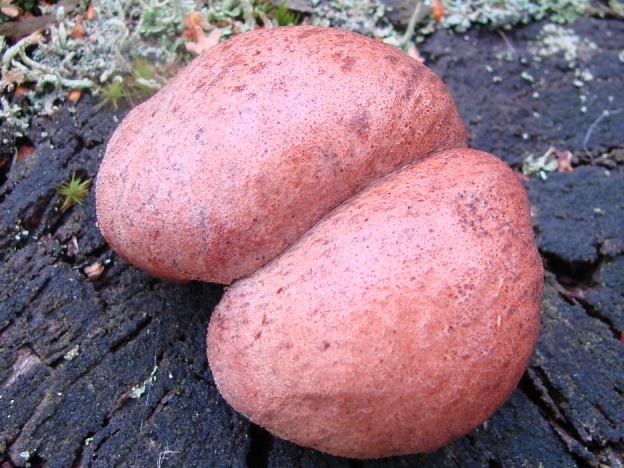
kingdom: Fungi
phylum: Basidiomycota
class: Agaricomycetes
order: Agaricales
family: Fistulinaceae
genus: Fistulina
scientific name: Fistulina hepatica
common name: oksetunge
